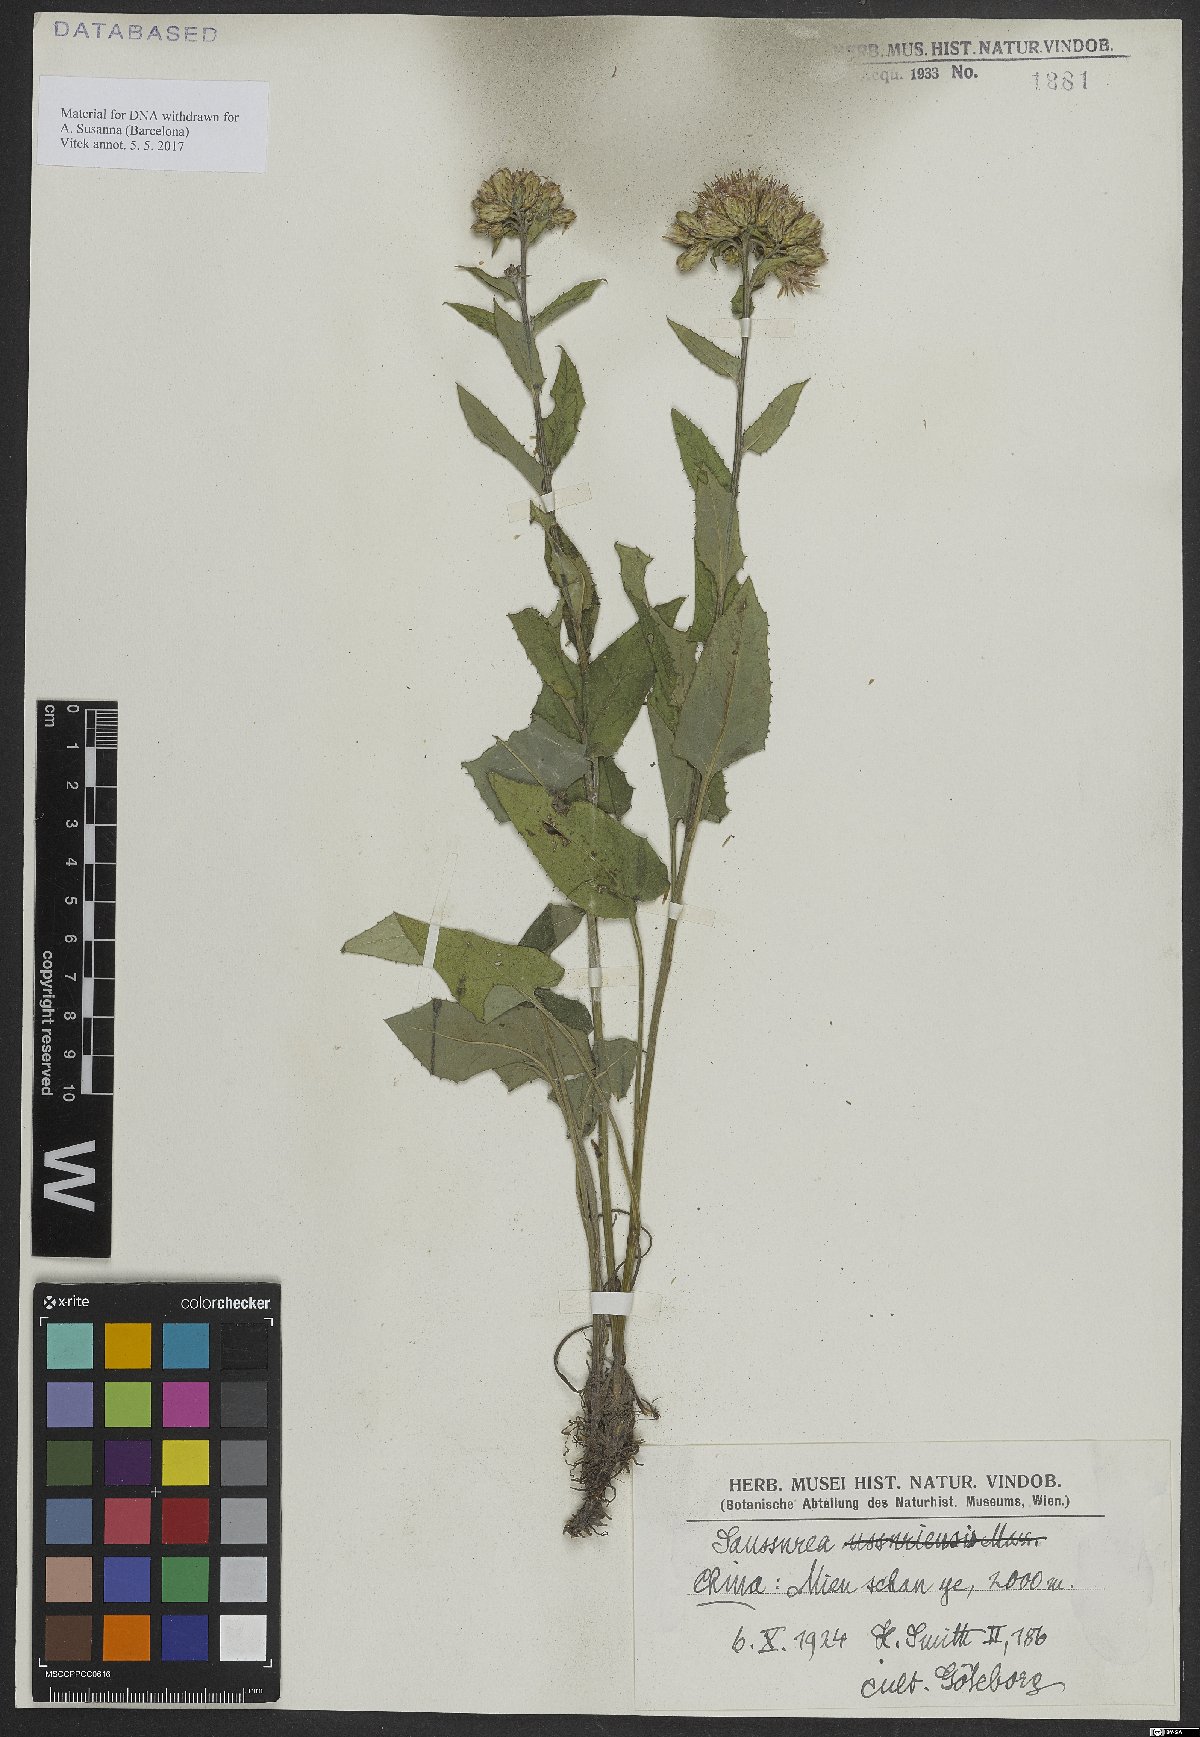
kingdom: Plantae
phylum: Tracheophyta
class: Magnoliopsida
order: Asterales
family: Asteraceae
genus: Saussurea
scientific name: Saussurea ussuriensis
